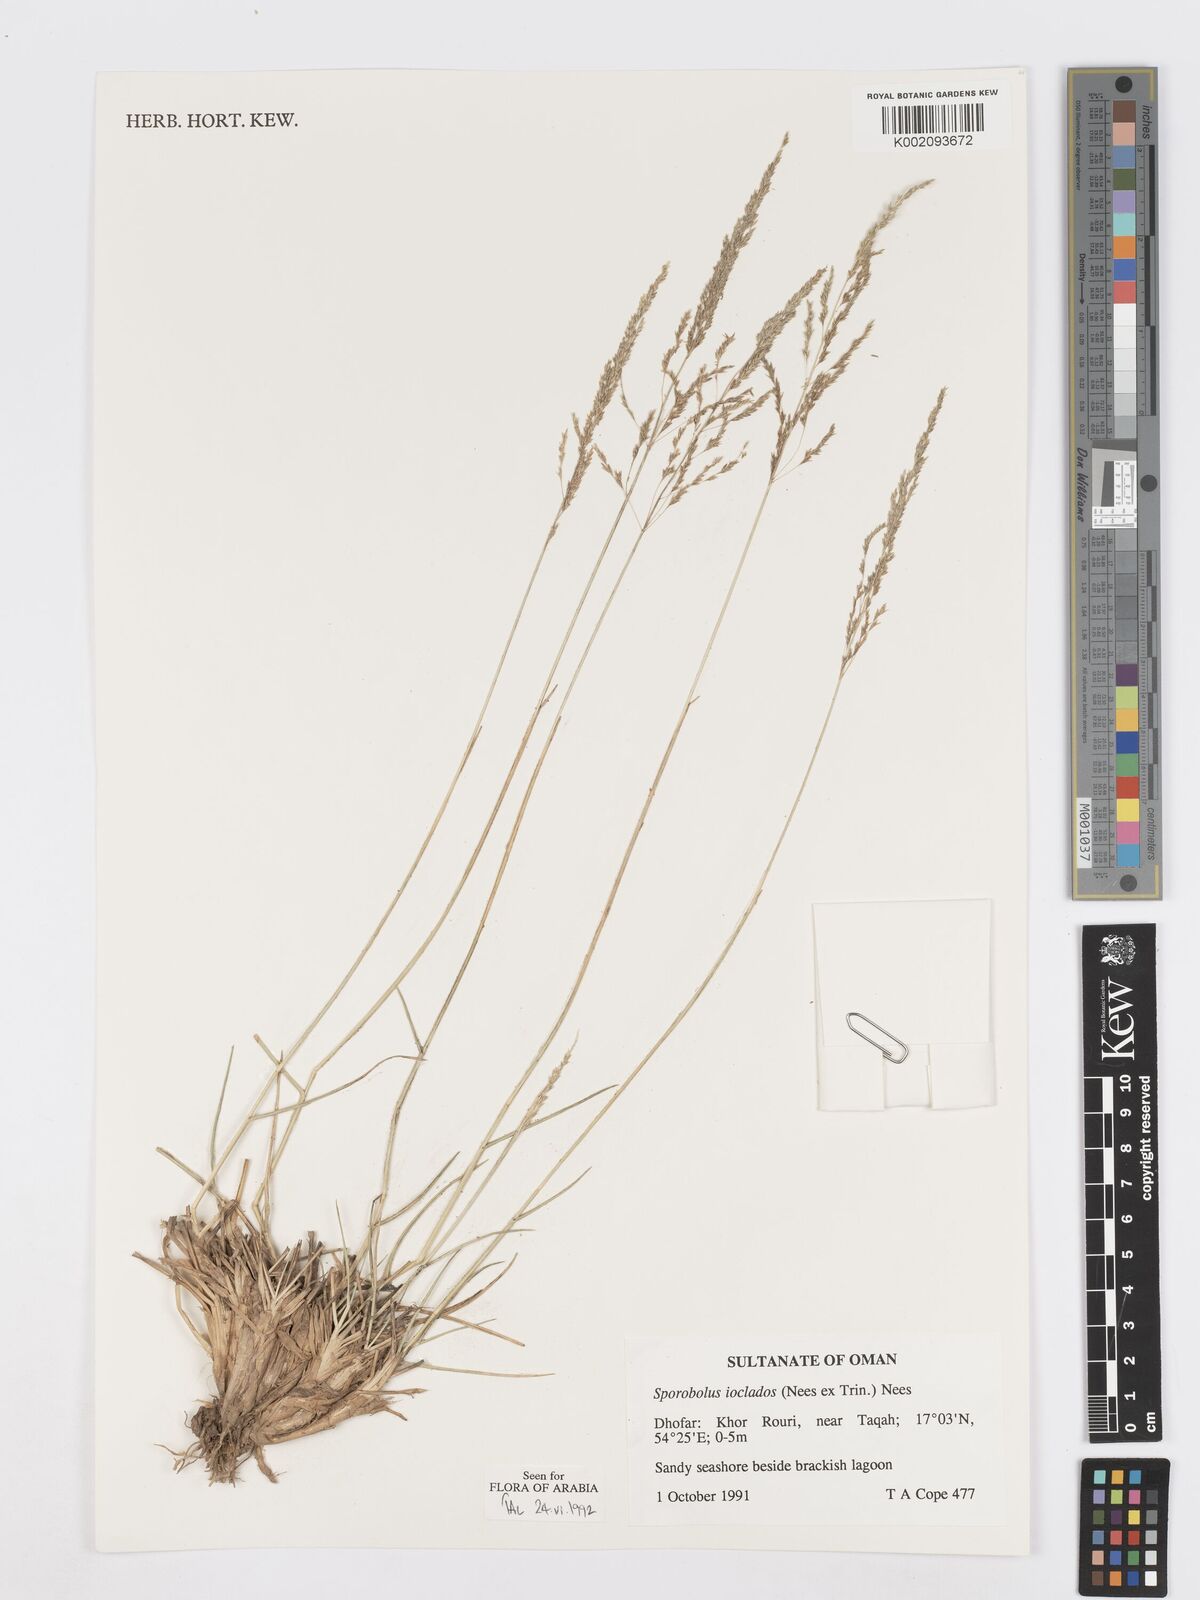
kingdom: Plantae
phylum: Tracheophyta
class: Liliopsida
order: Poales
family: Poaceae
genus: Sporobolus
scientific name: Sporobolus ioclados
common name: Pan dropseed
